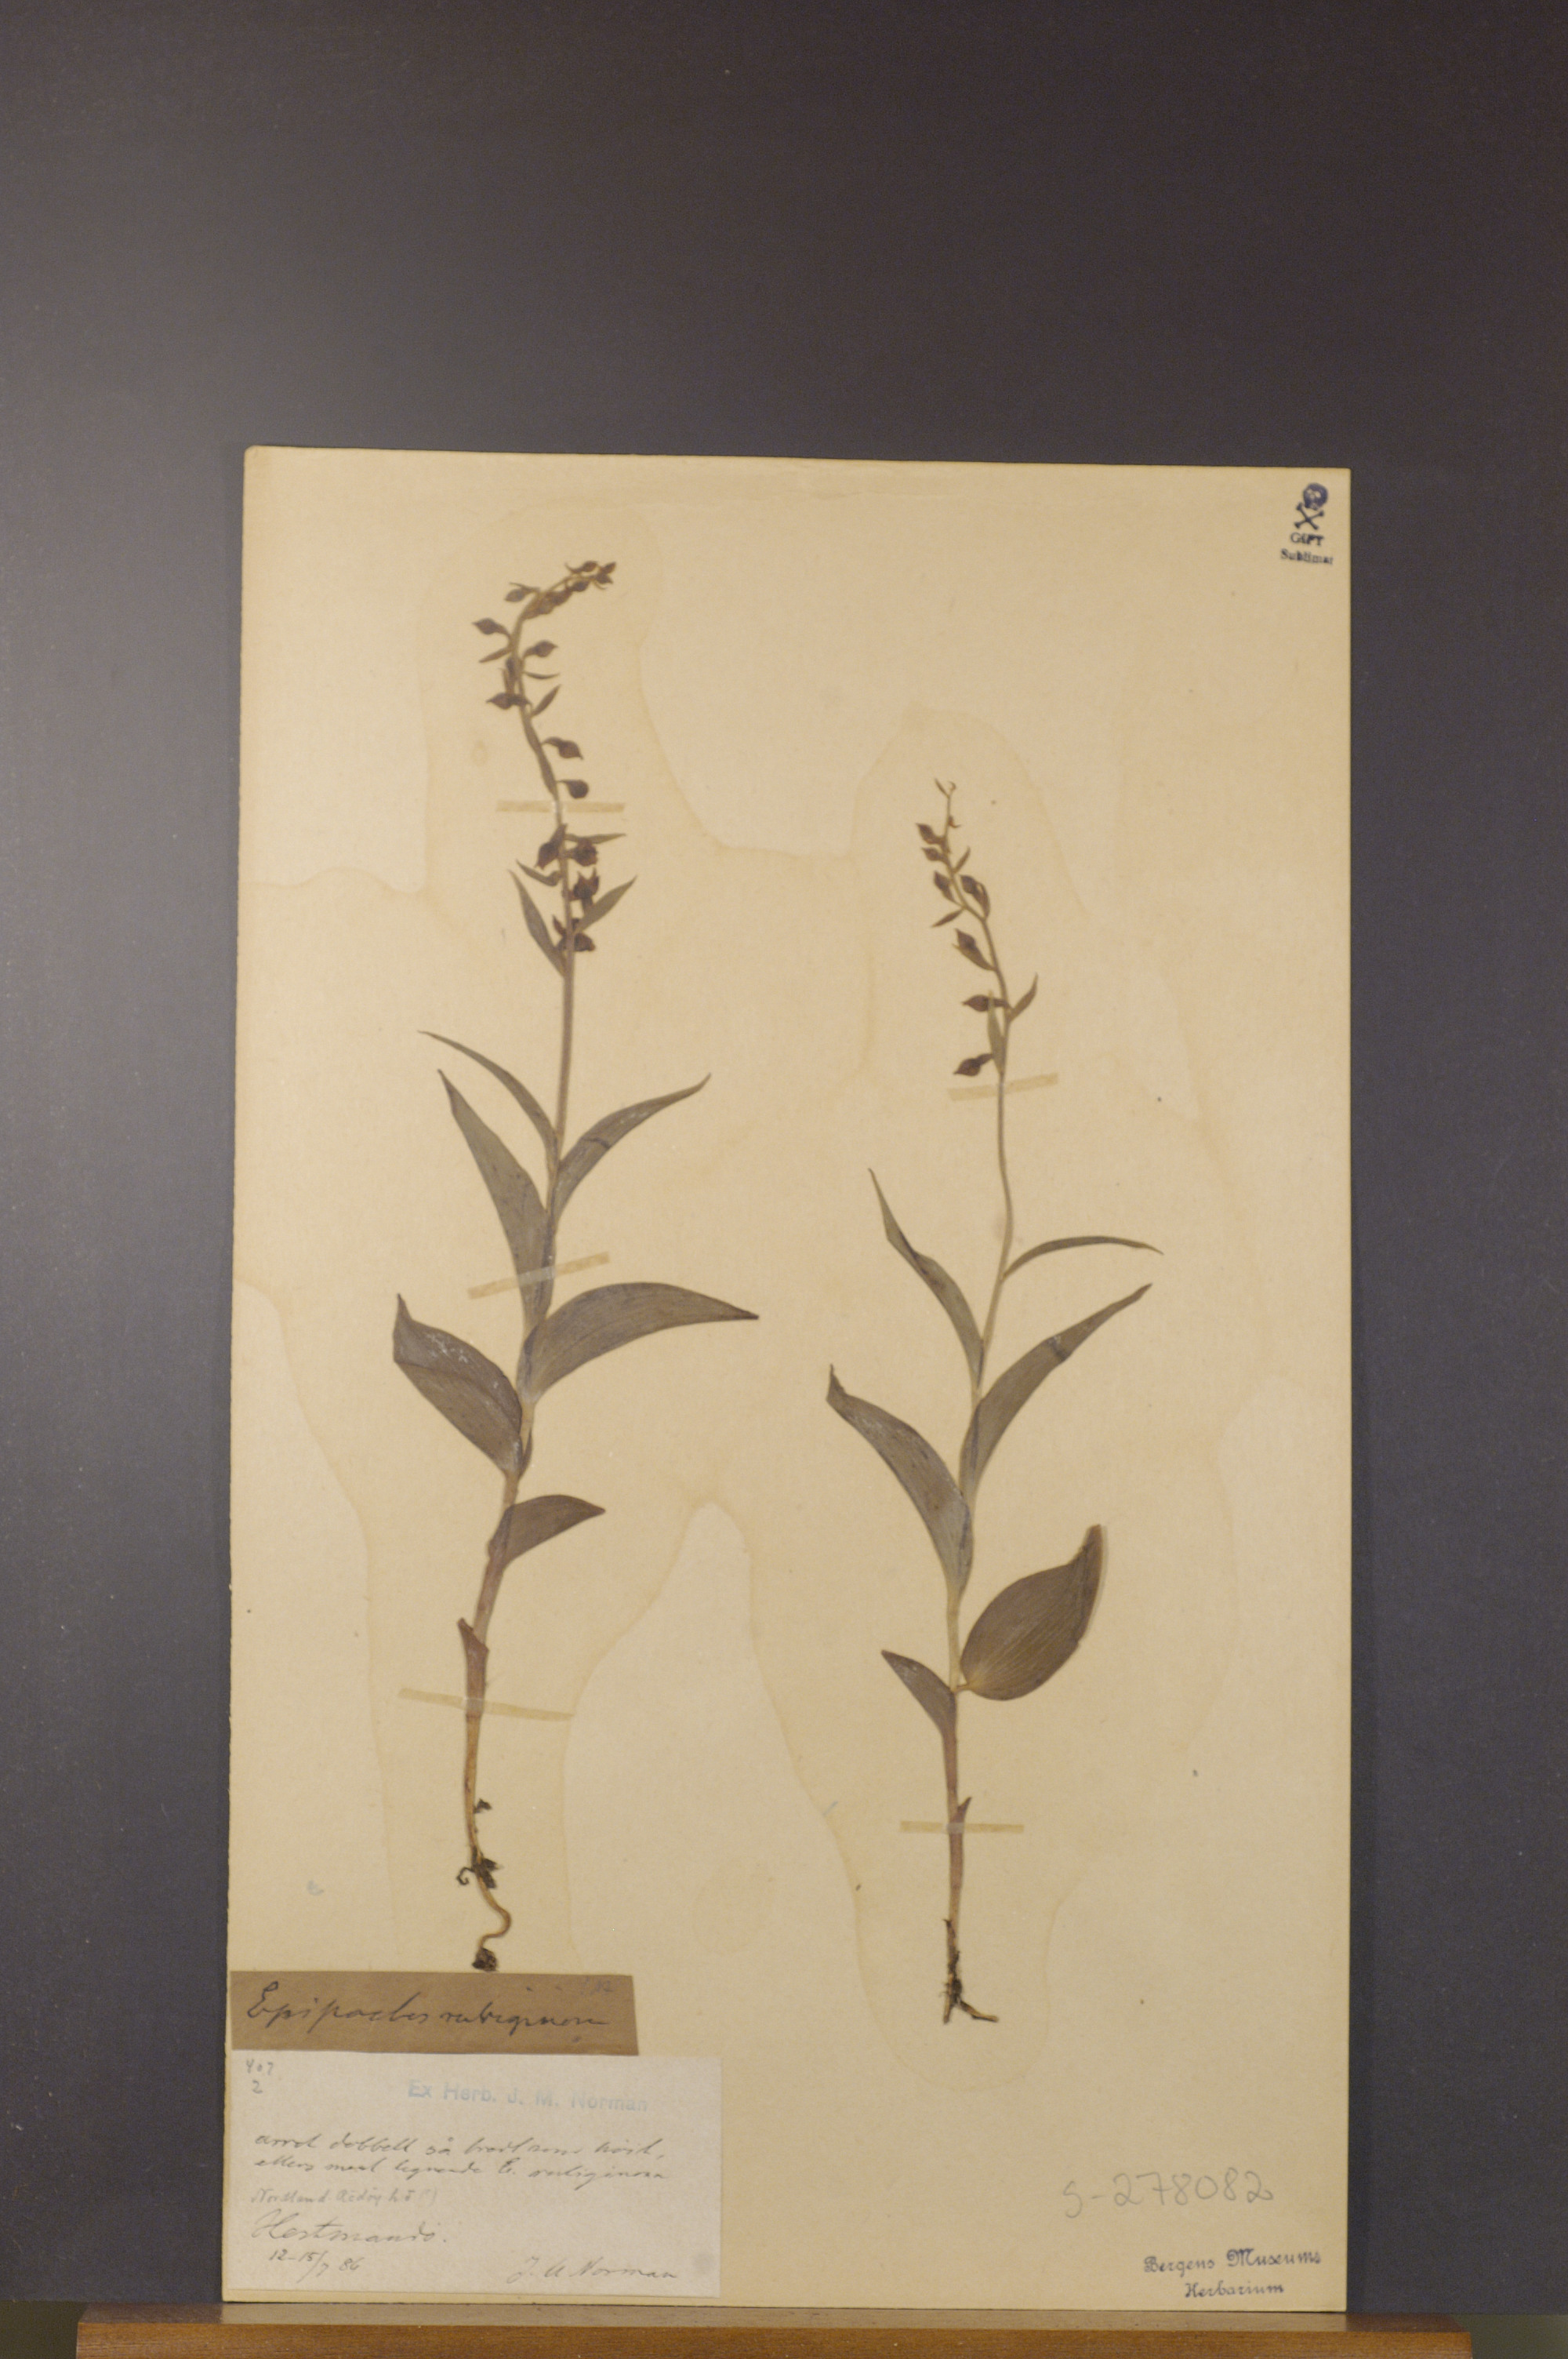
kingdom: Plantae
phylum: Tracheophyta
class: Liliopsida
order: Asparagales
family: Orchidaceae
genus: Epipactis
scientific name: Epipactis atrorubens
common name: Dark-red helleborine
